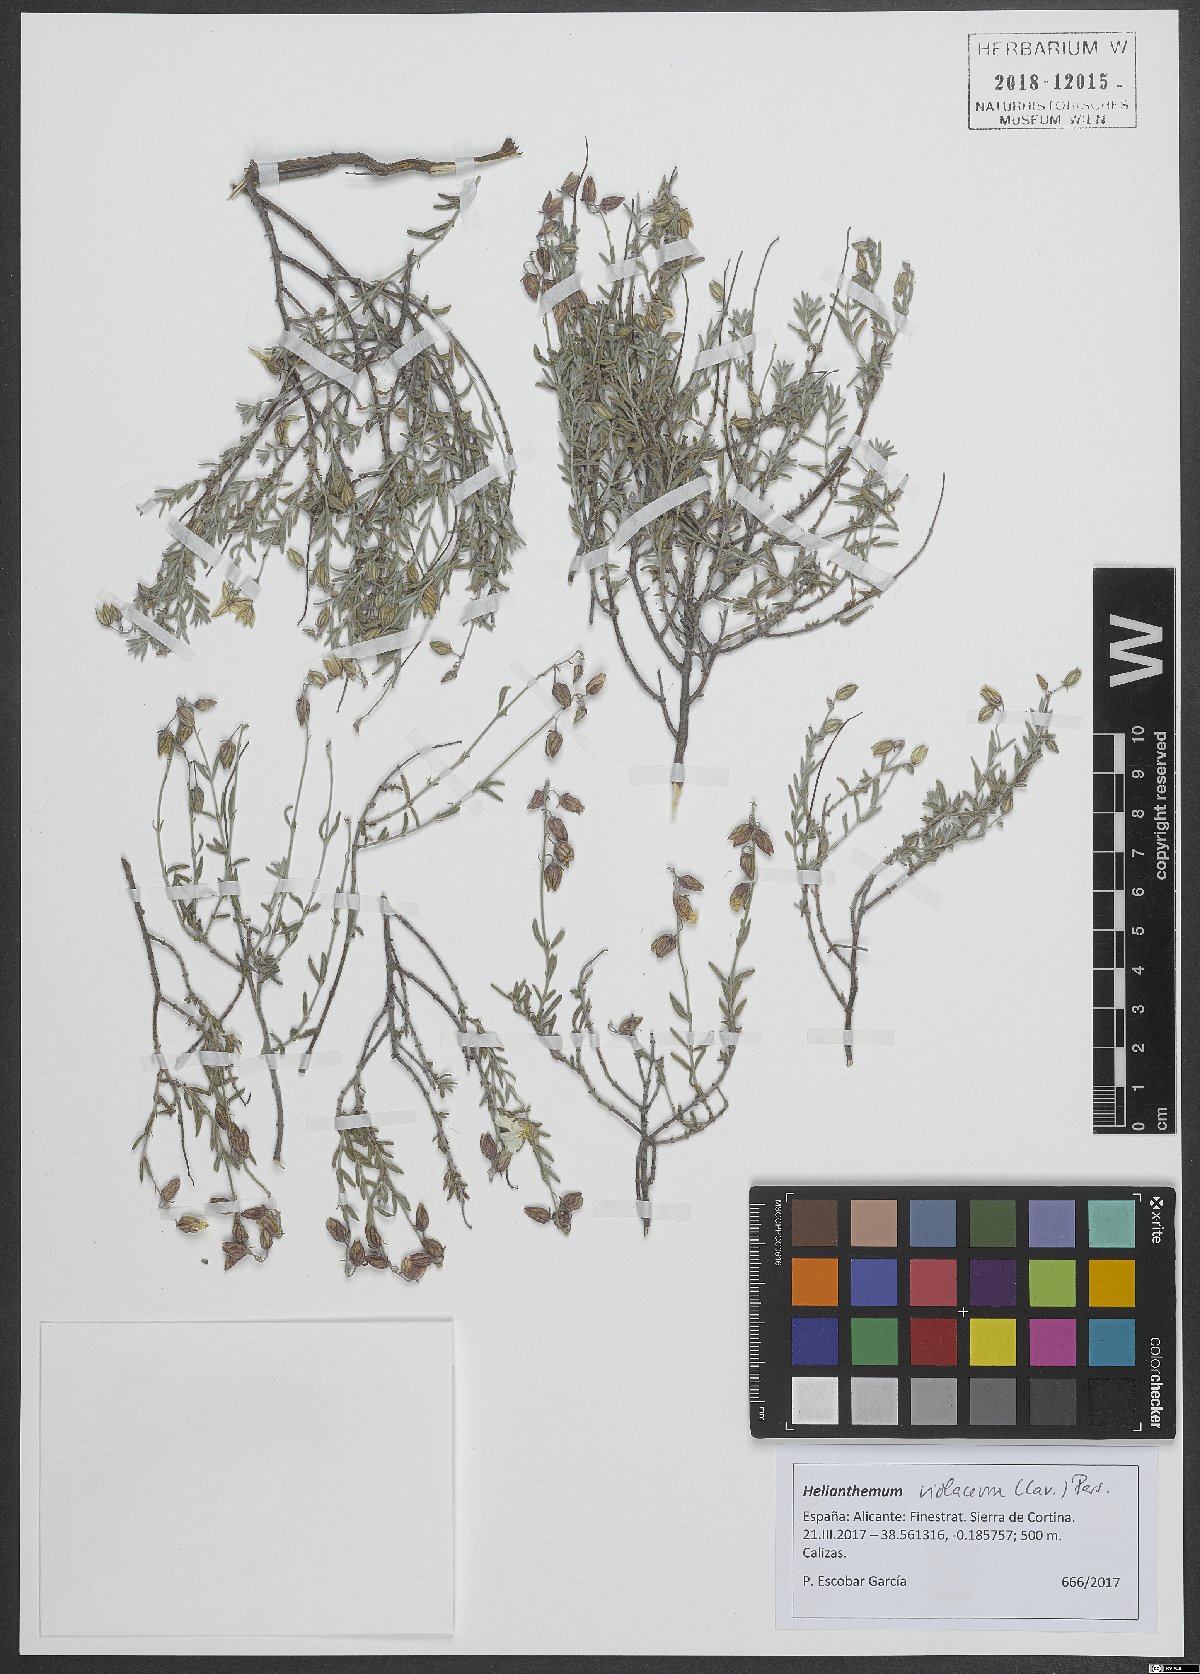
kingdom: Plantae
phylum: Tracheophyta
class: Magnoliopsida
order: Malvales
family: Cistaceae
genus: Helianthemum
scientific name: Helianthemum violaceum
